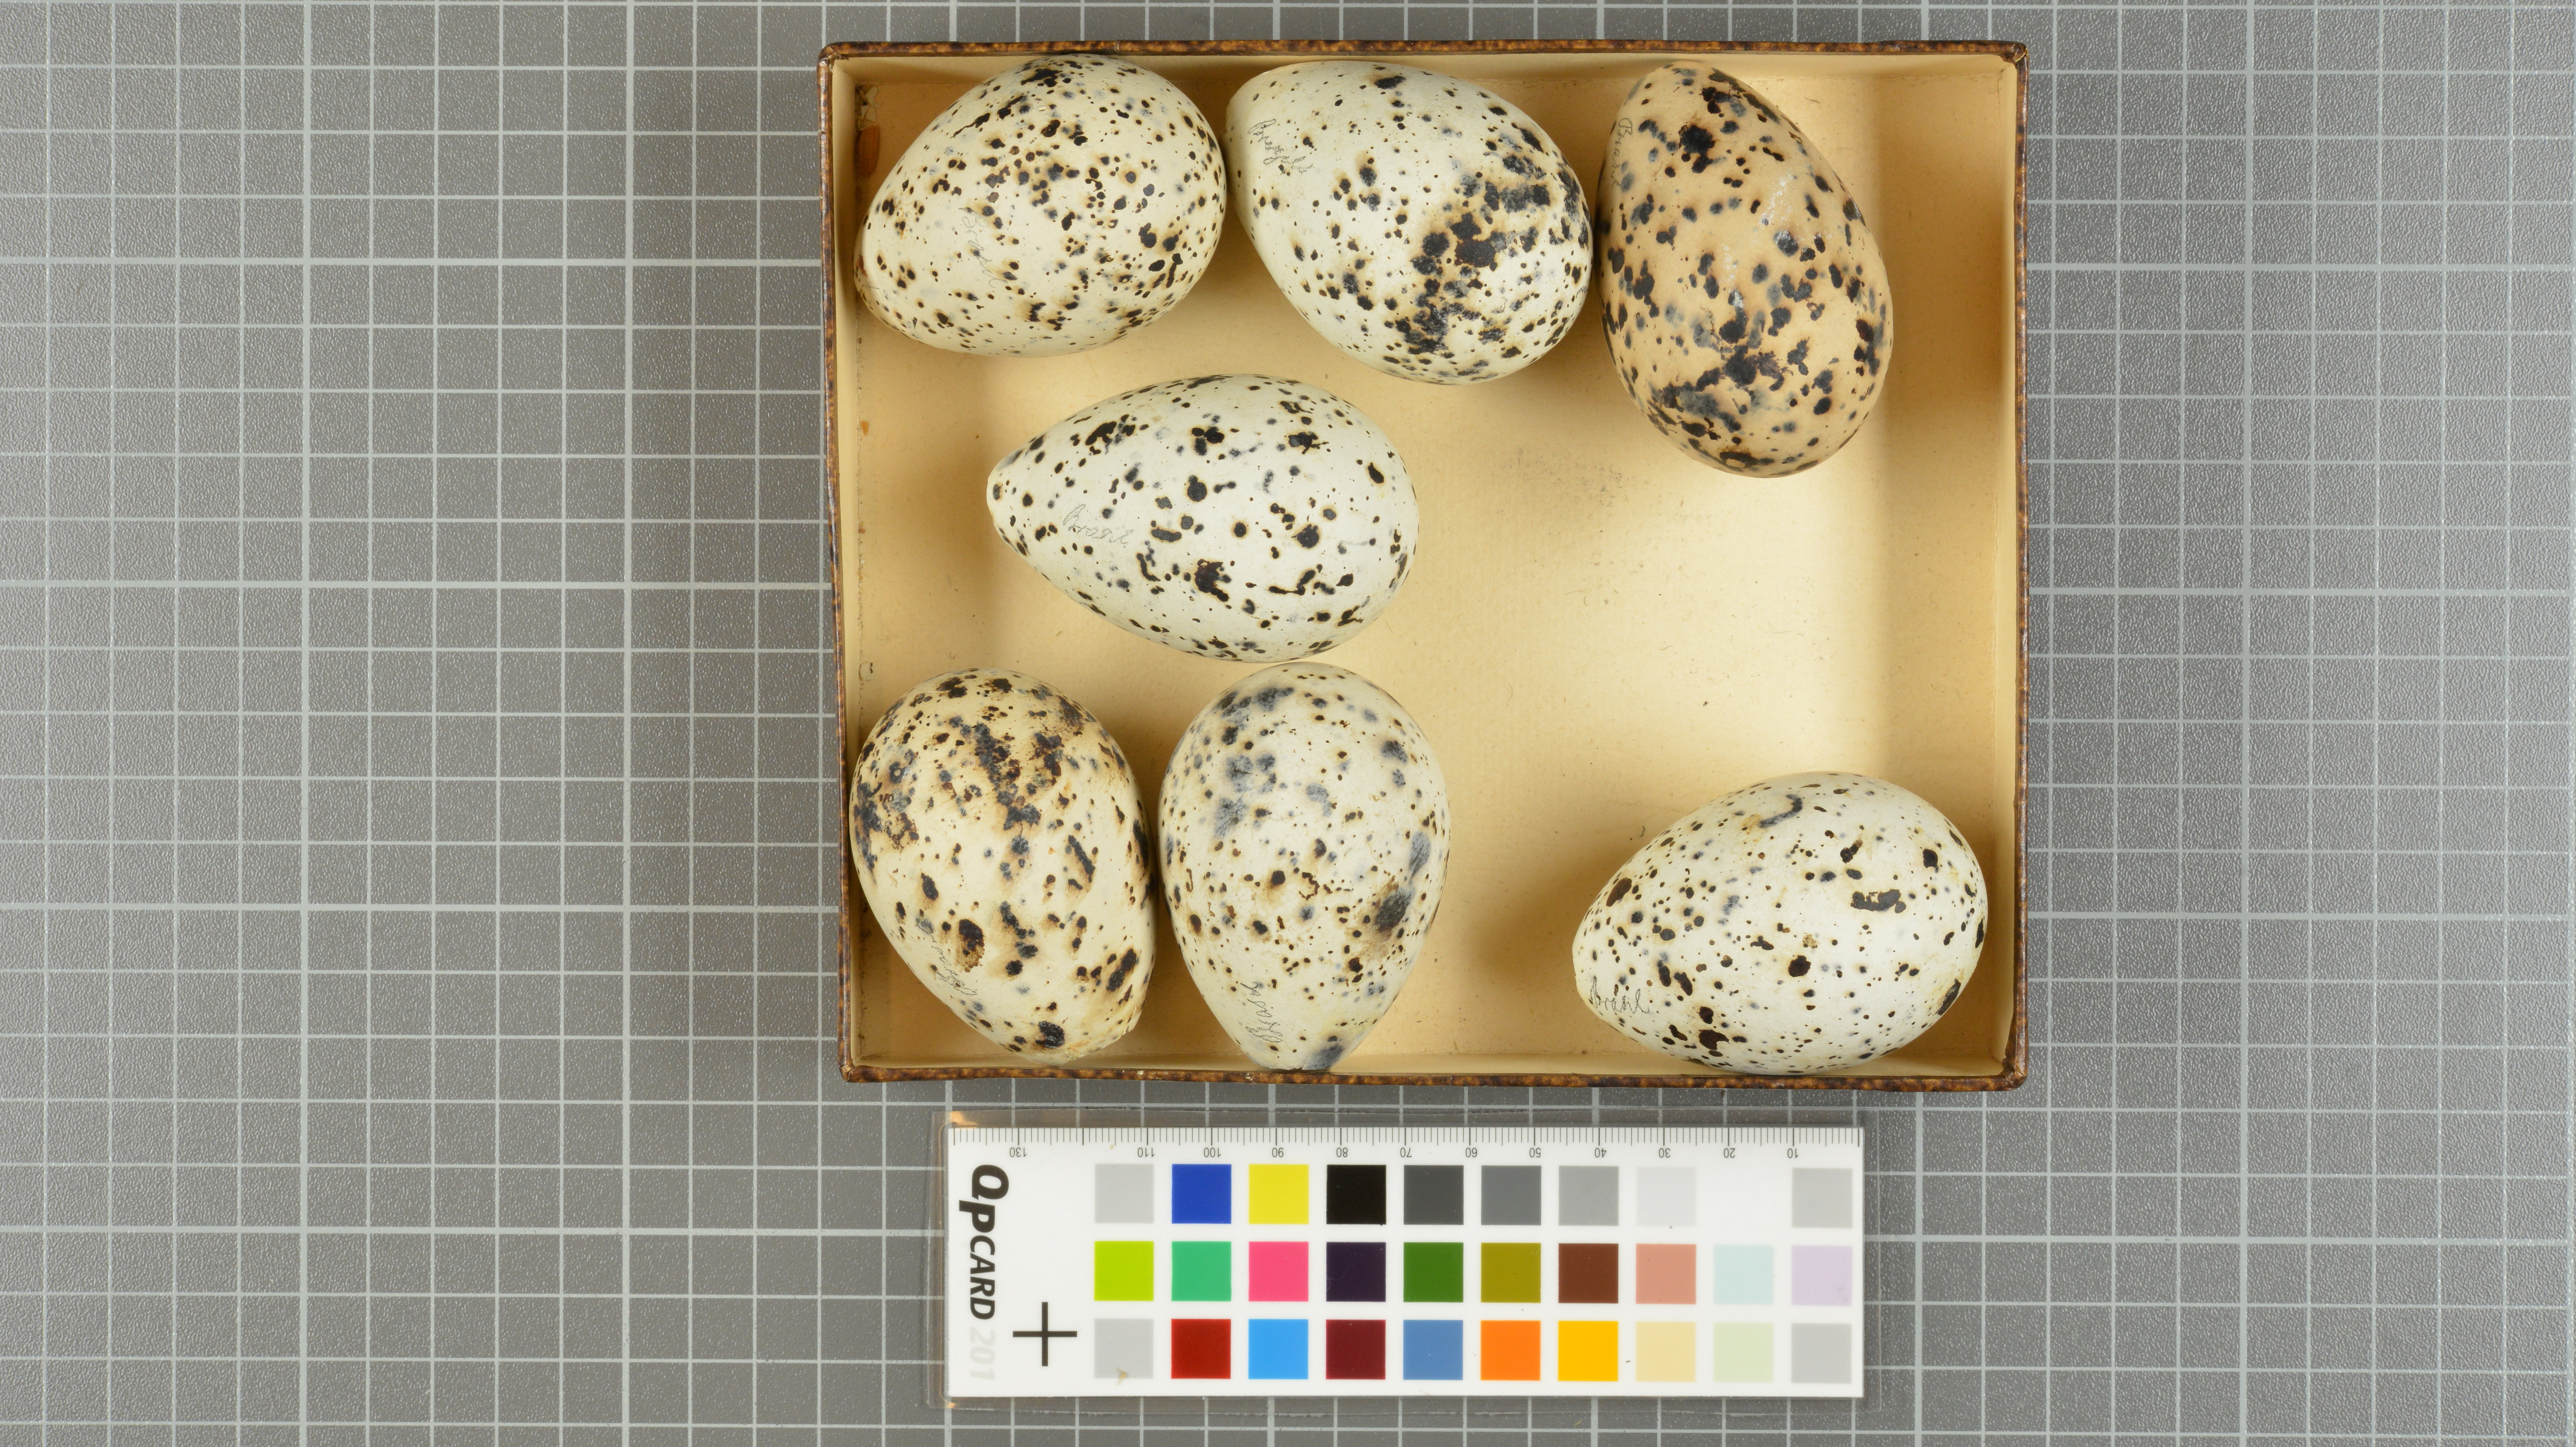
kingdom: Animalia
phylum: Chordata
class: Aves
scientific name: Aves
